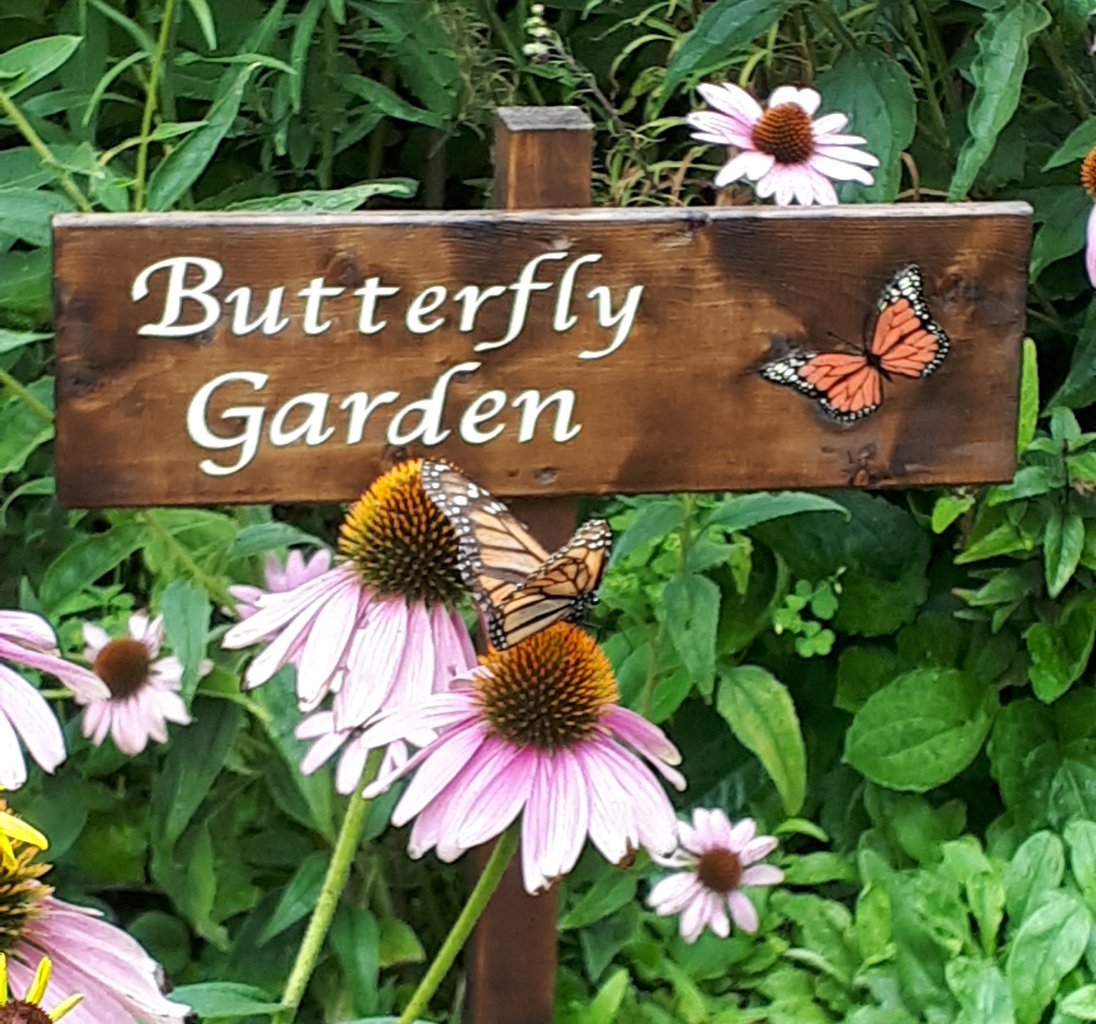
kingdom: Animalia
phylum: Arthropoda
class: Insecta
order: Lepidoptera
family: Nymphalidae
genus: Danaus
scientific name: Danaus plexippus
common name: Monarch
